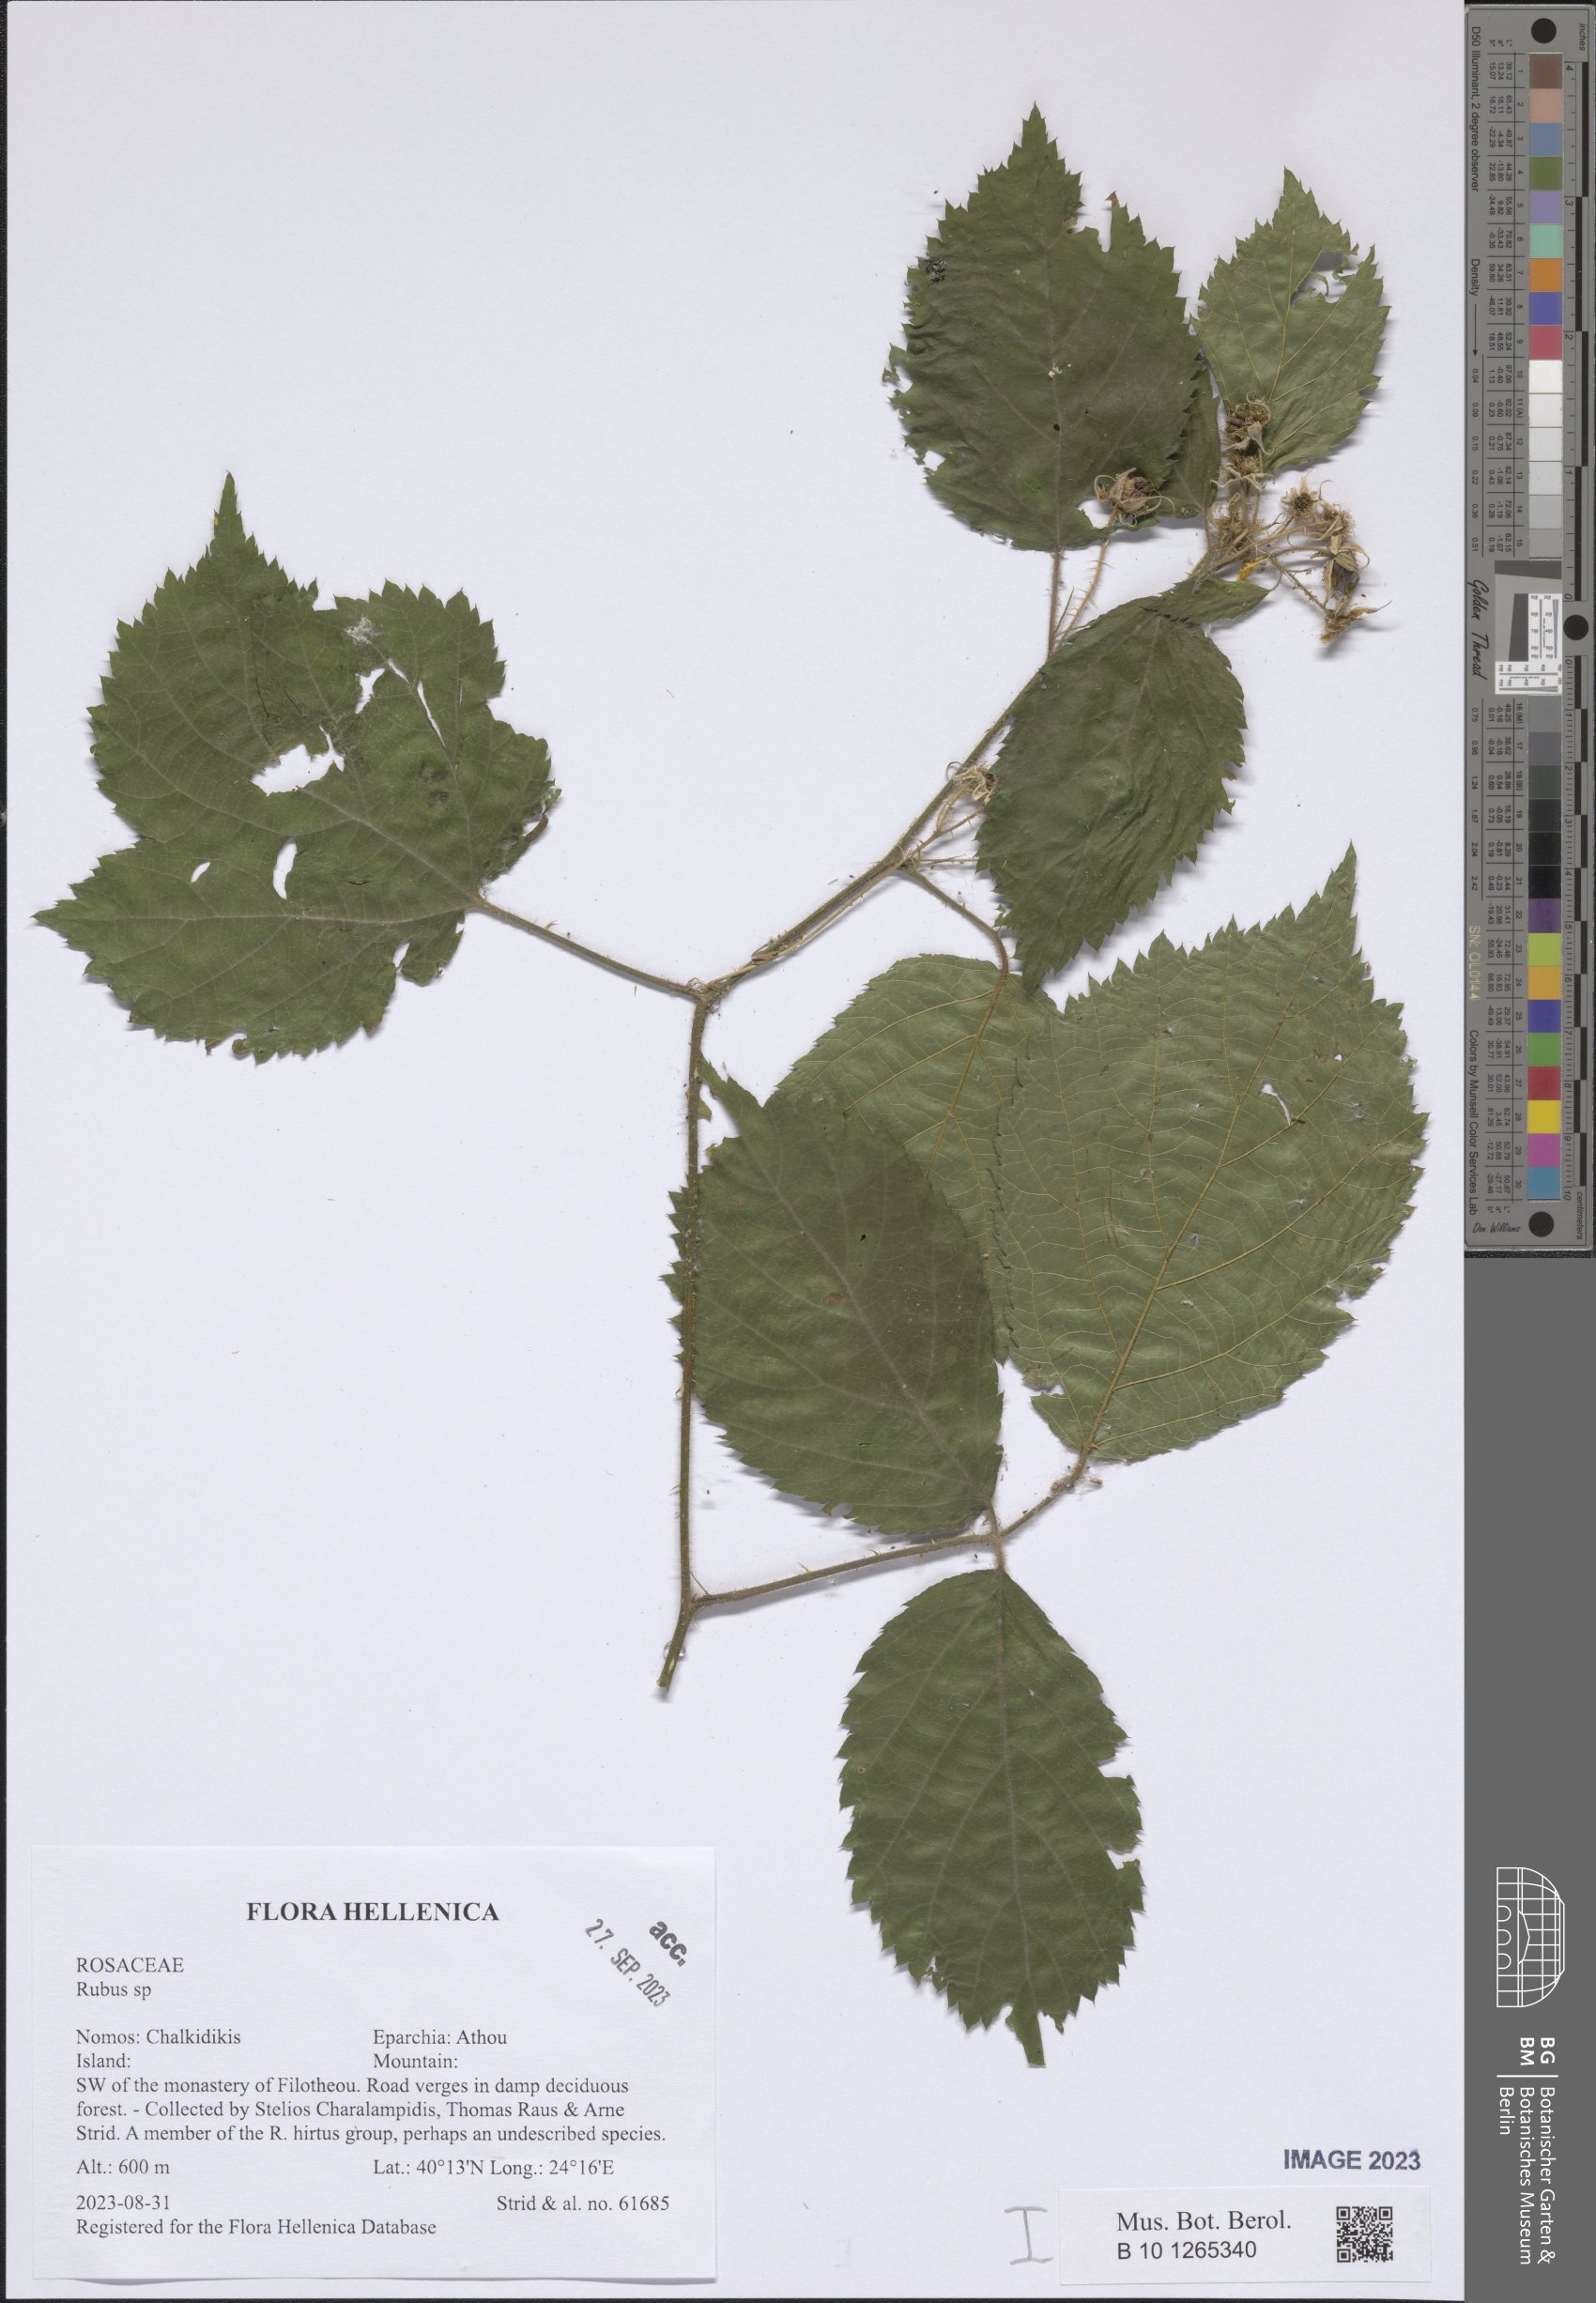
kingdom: Plantae
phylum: Tracheophyta
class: Magnoliopsida
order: Rosales
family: Rosaceae
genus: Rubus
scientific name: Rubus
